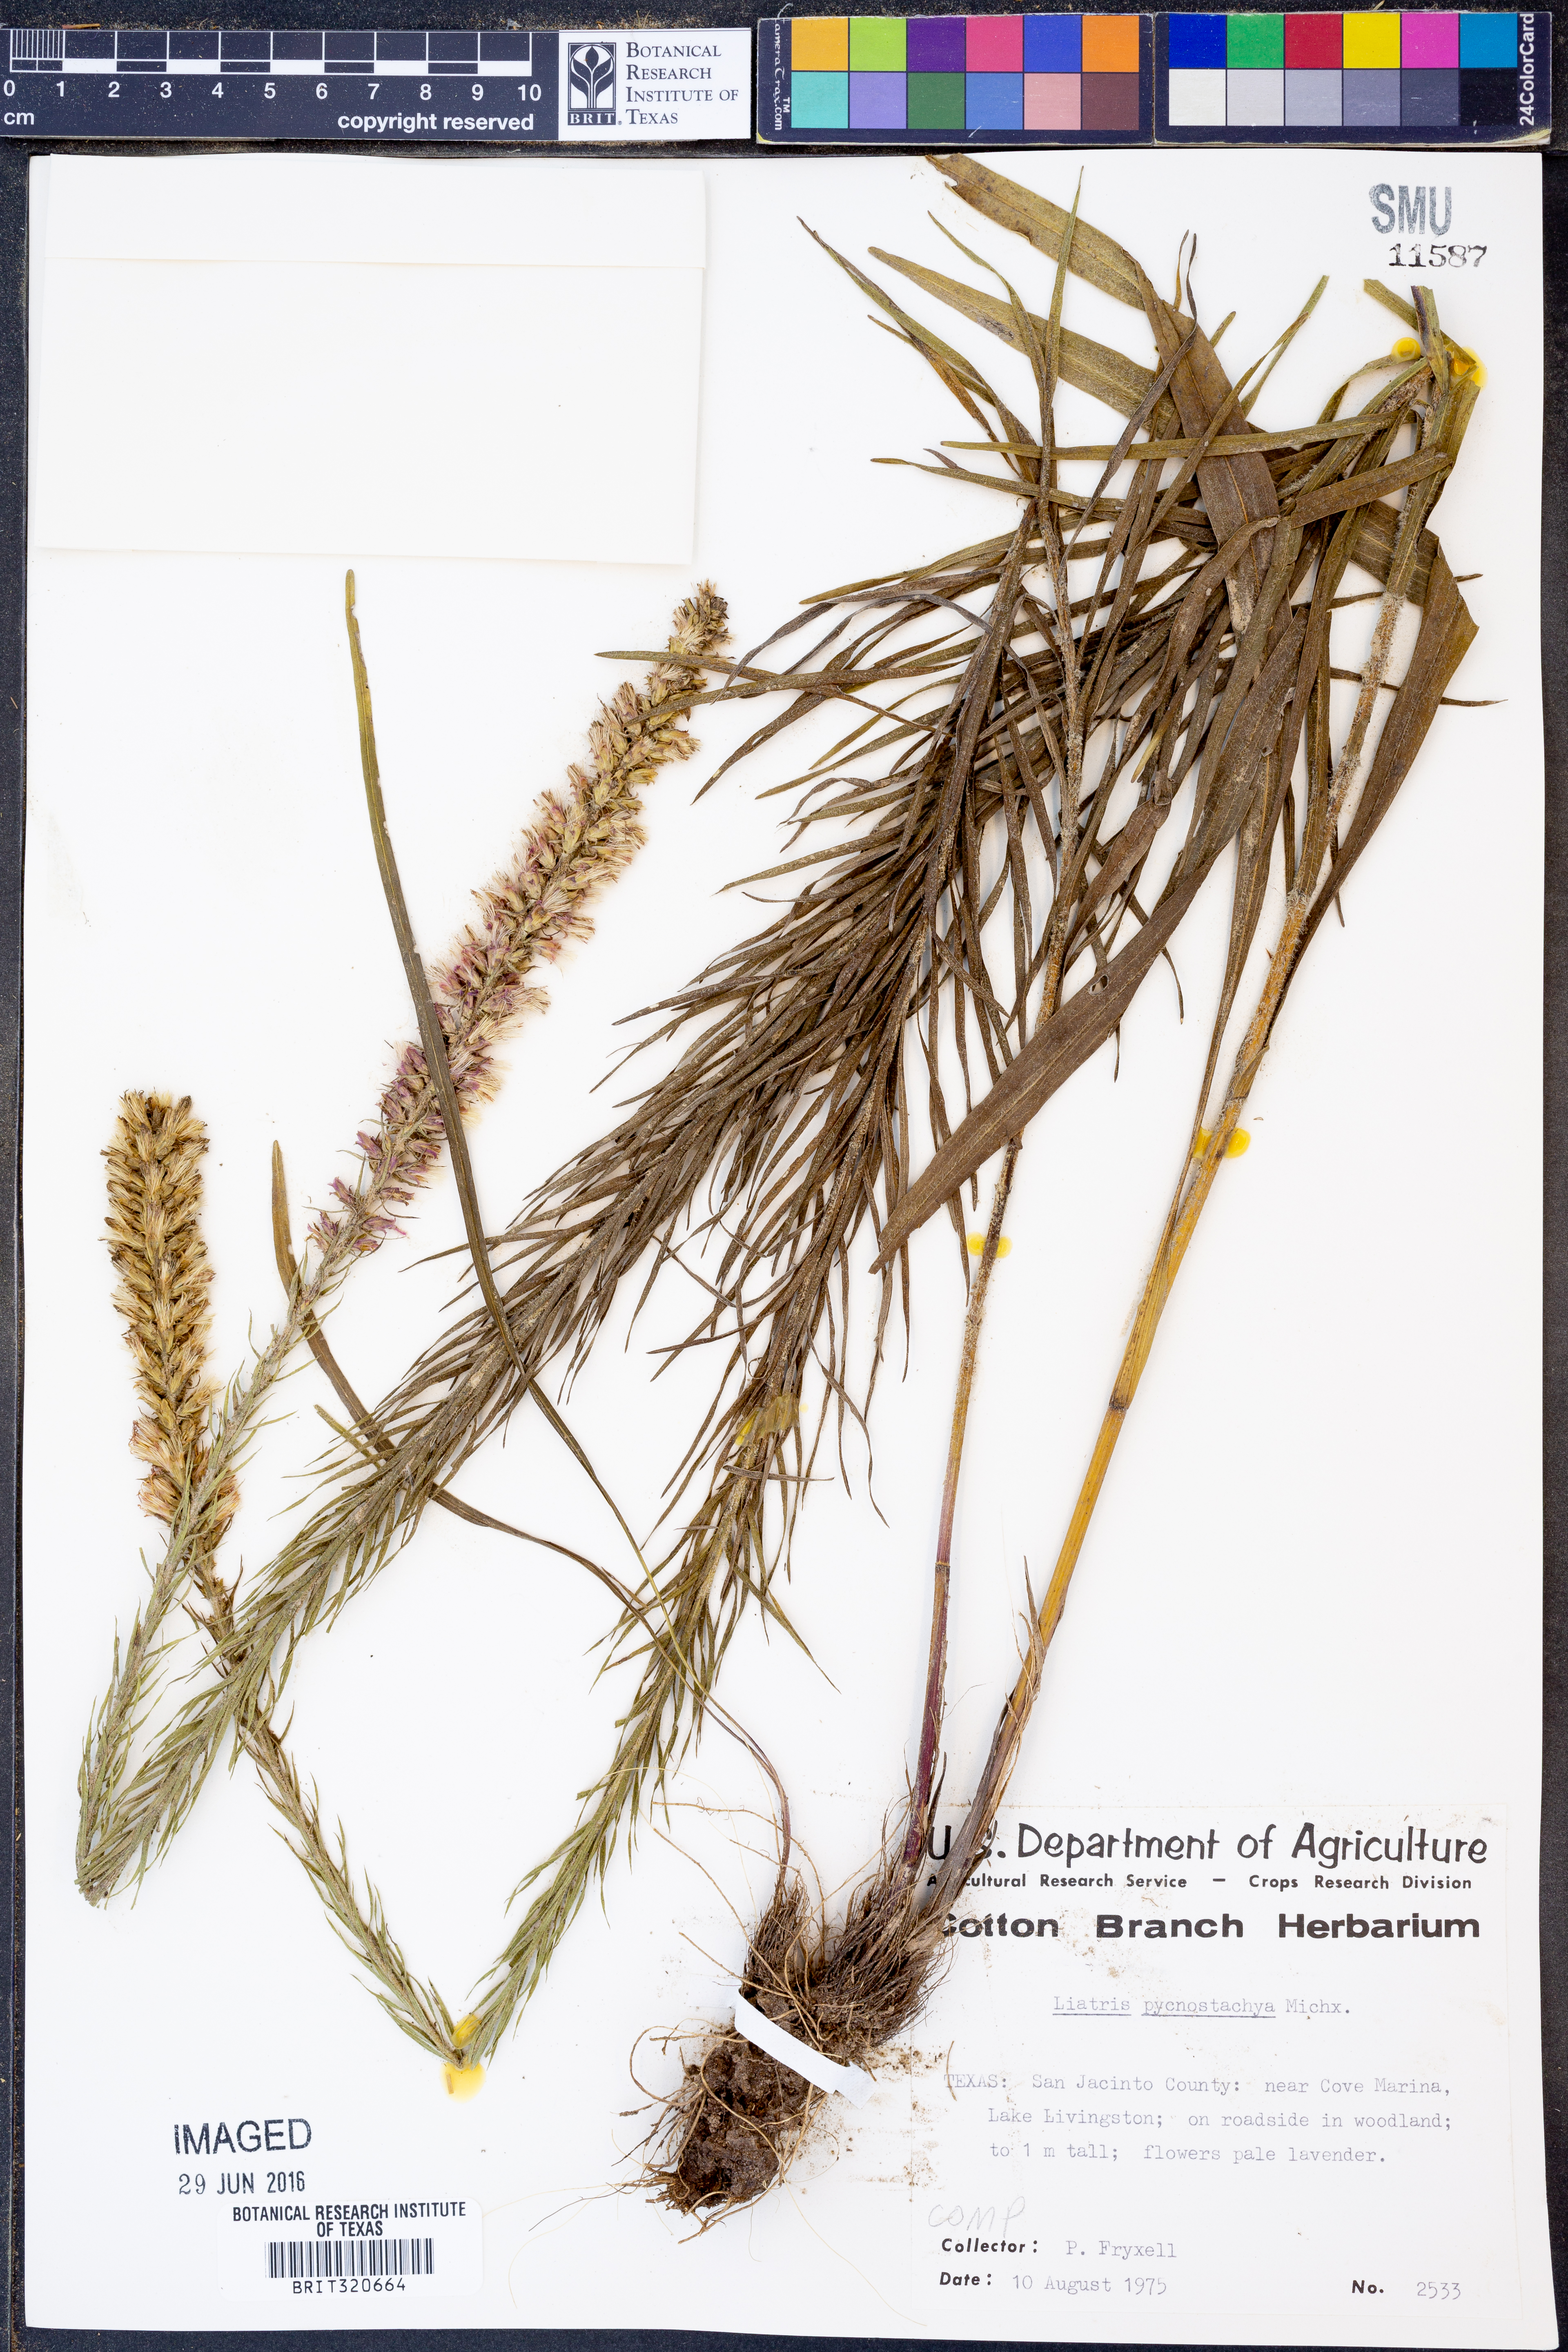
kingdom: Plantae
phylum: Tracheophyta
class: Magnoliopsida
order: Asterales
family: Asteraceae
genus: Liatris
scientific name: Liatris pycnostachya
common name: Cattail gayfeather
